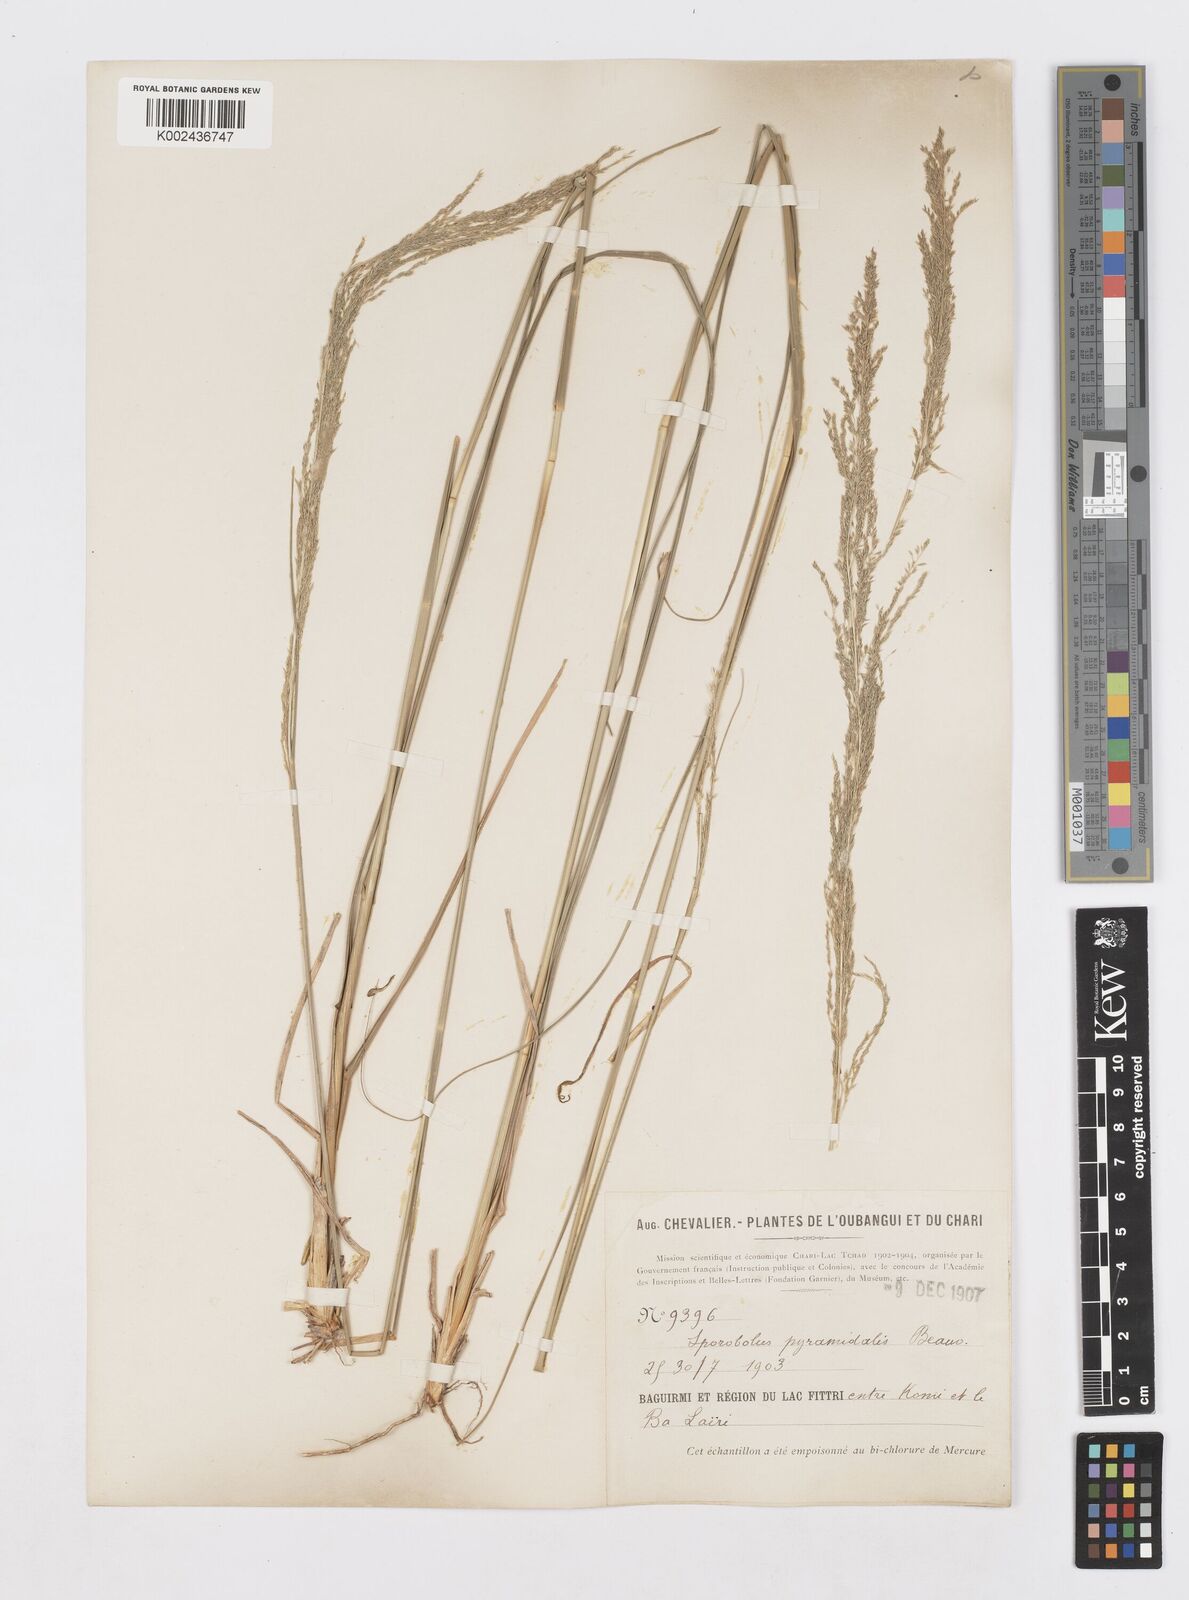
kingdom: Plantae
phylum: Tracheophyta
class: Liliopsida
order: Poales
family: Poaceae
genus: Sporobolus
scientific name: Sporobolus pyramidalis
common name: West indian dropseed
